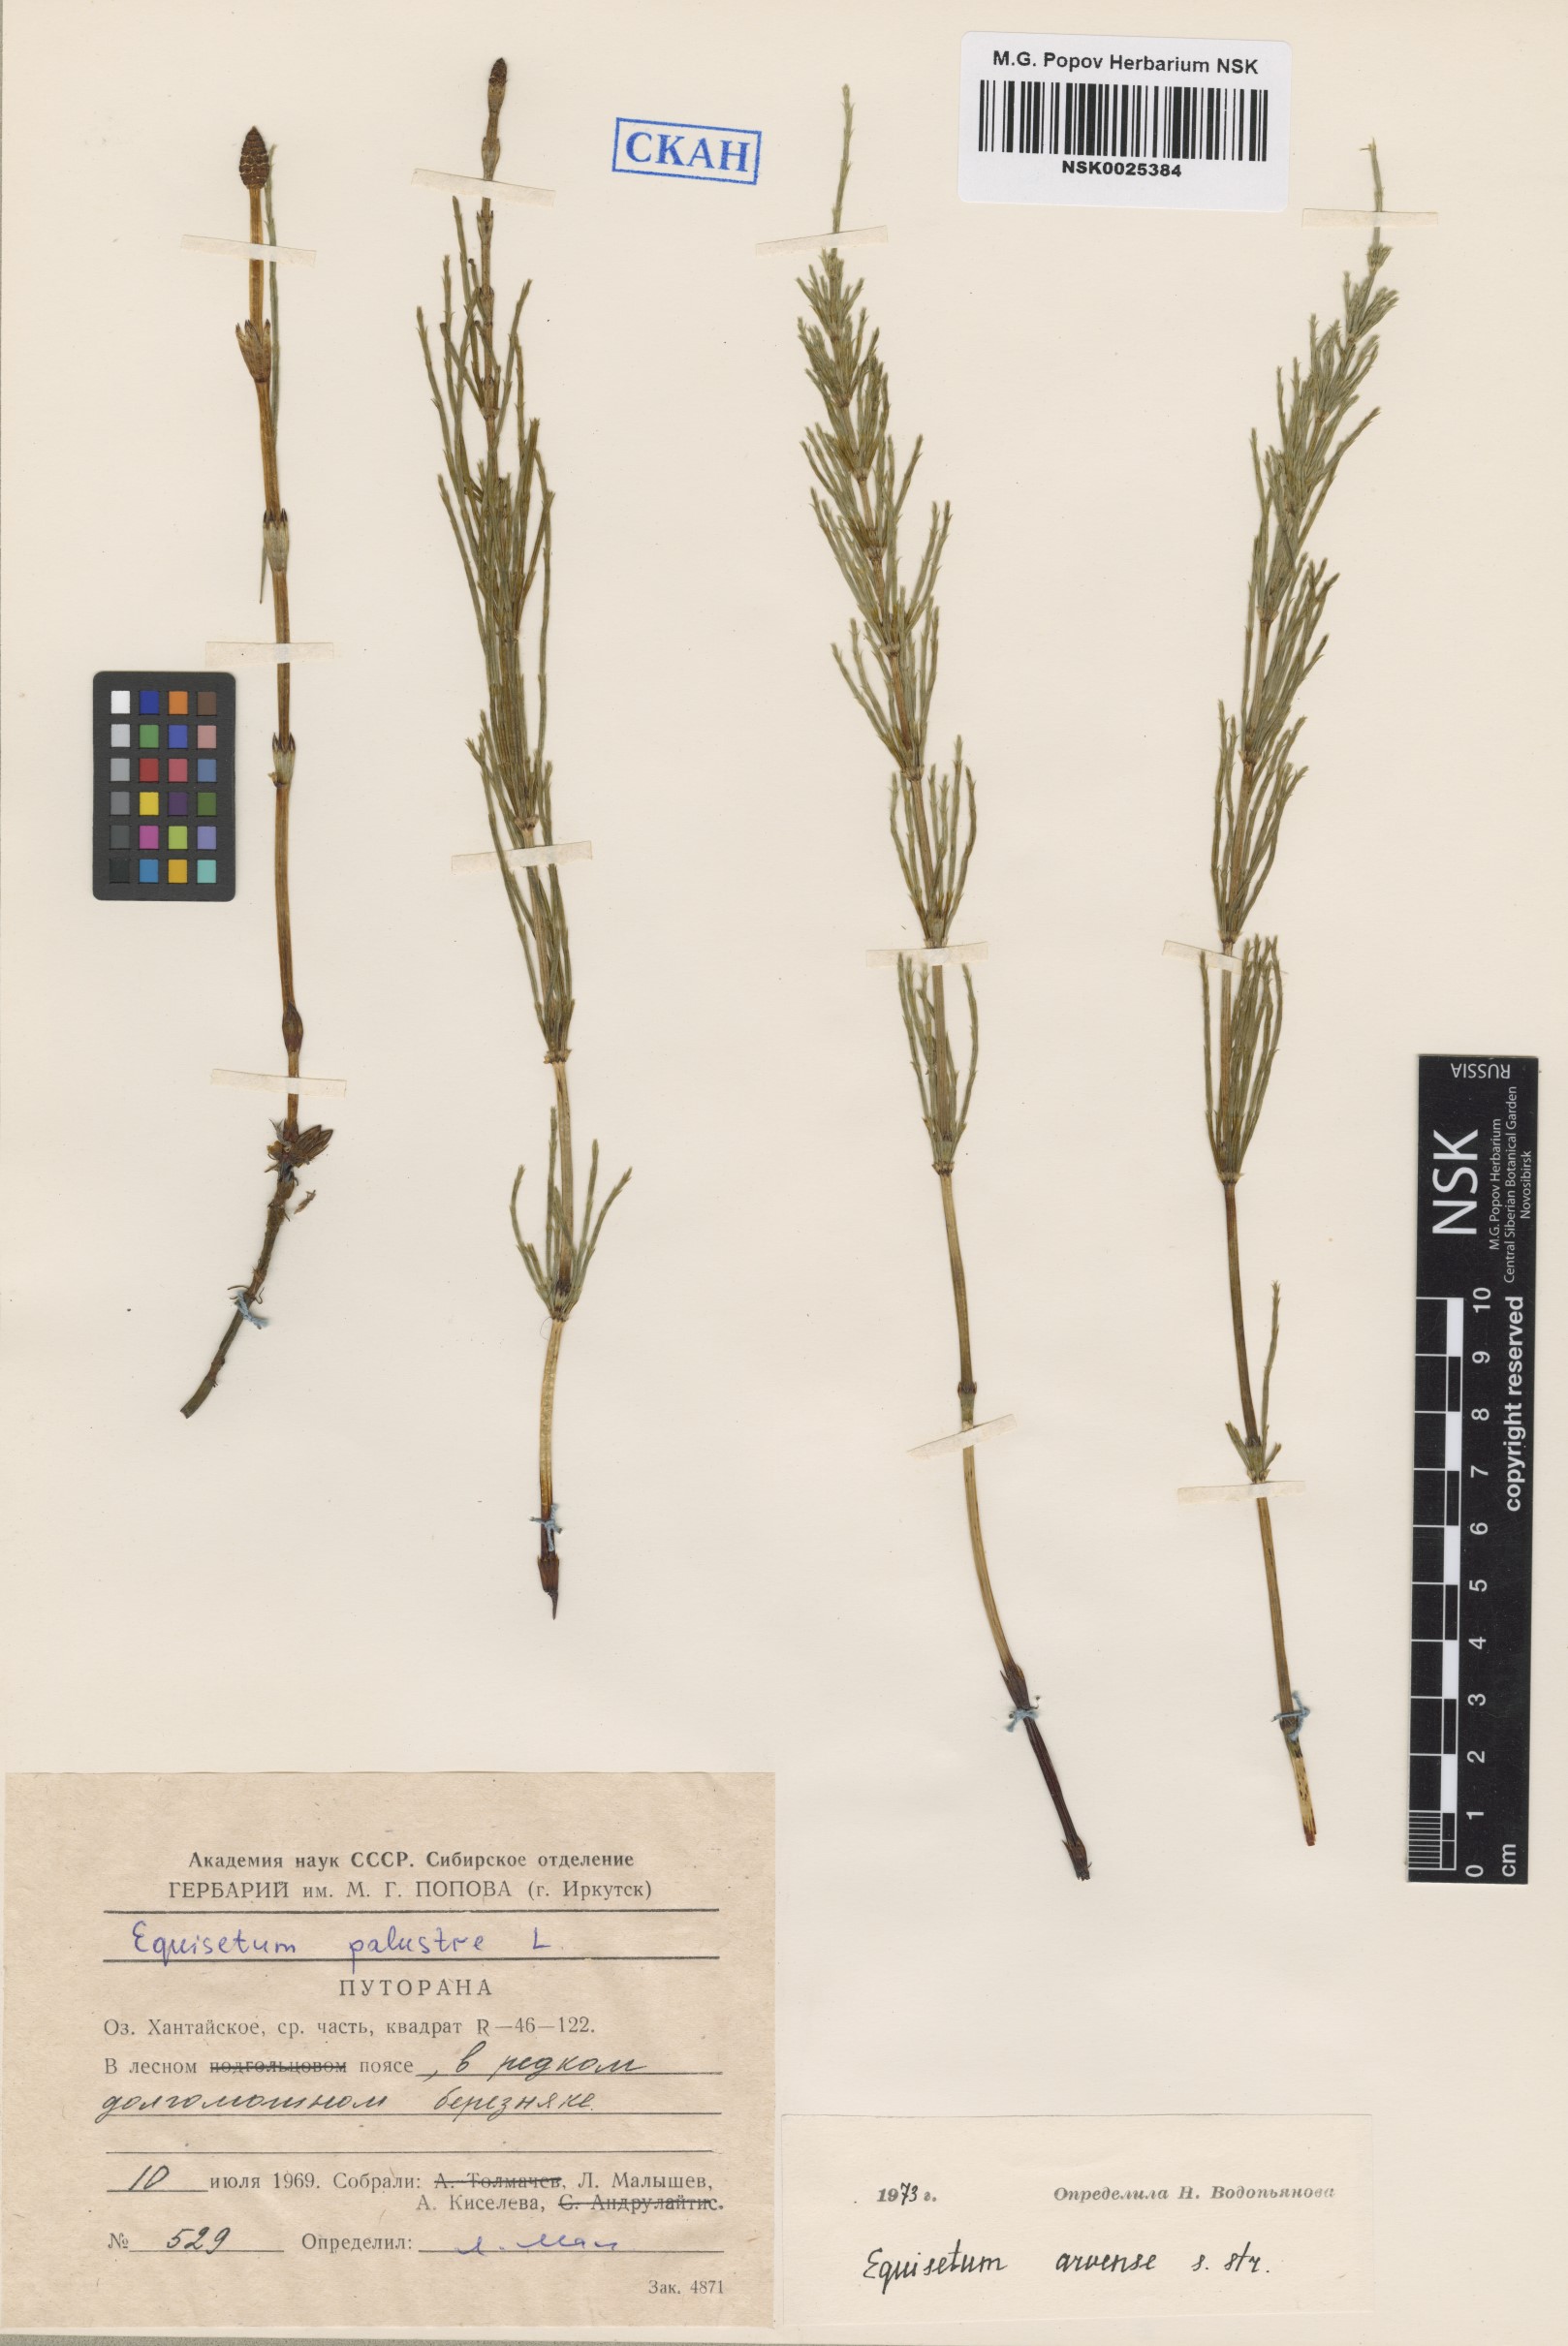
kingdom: Plantae
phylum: Tracheophyta
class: Polypodiopsida
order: Equisetales
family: Equisetaceae
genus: Equisetum
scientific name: Equisetum arvense
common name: Field horsetail
